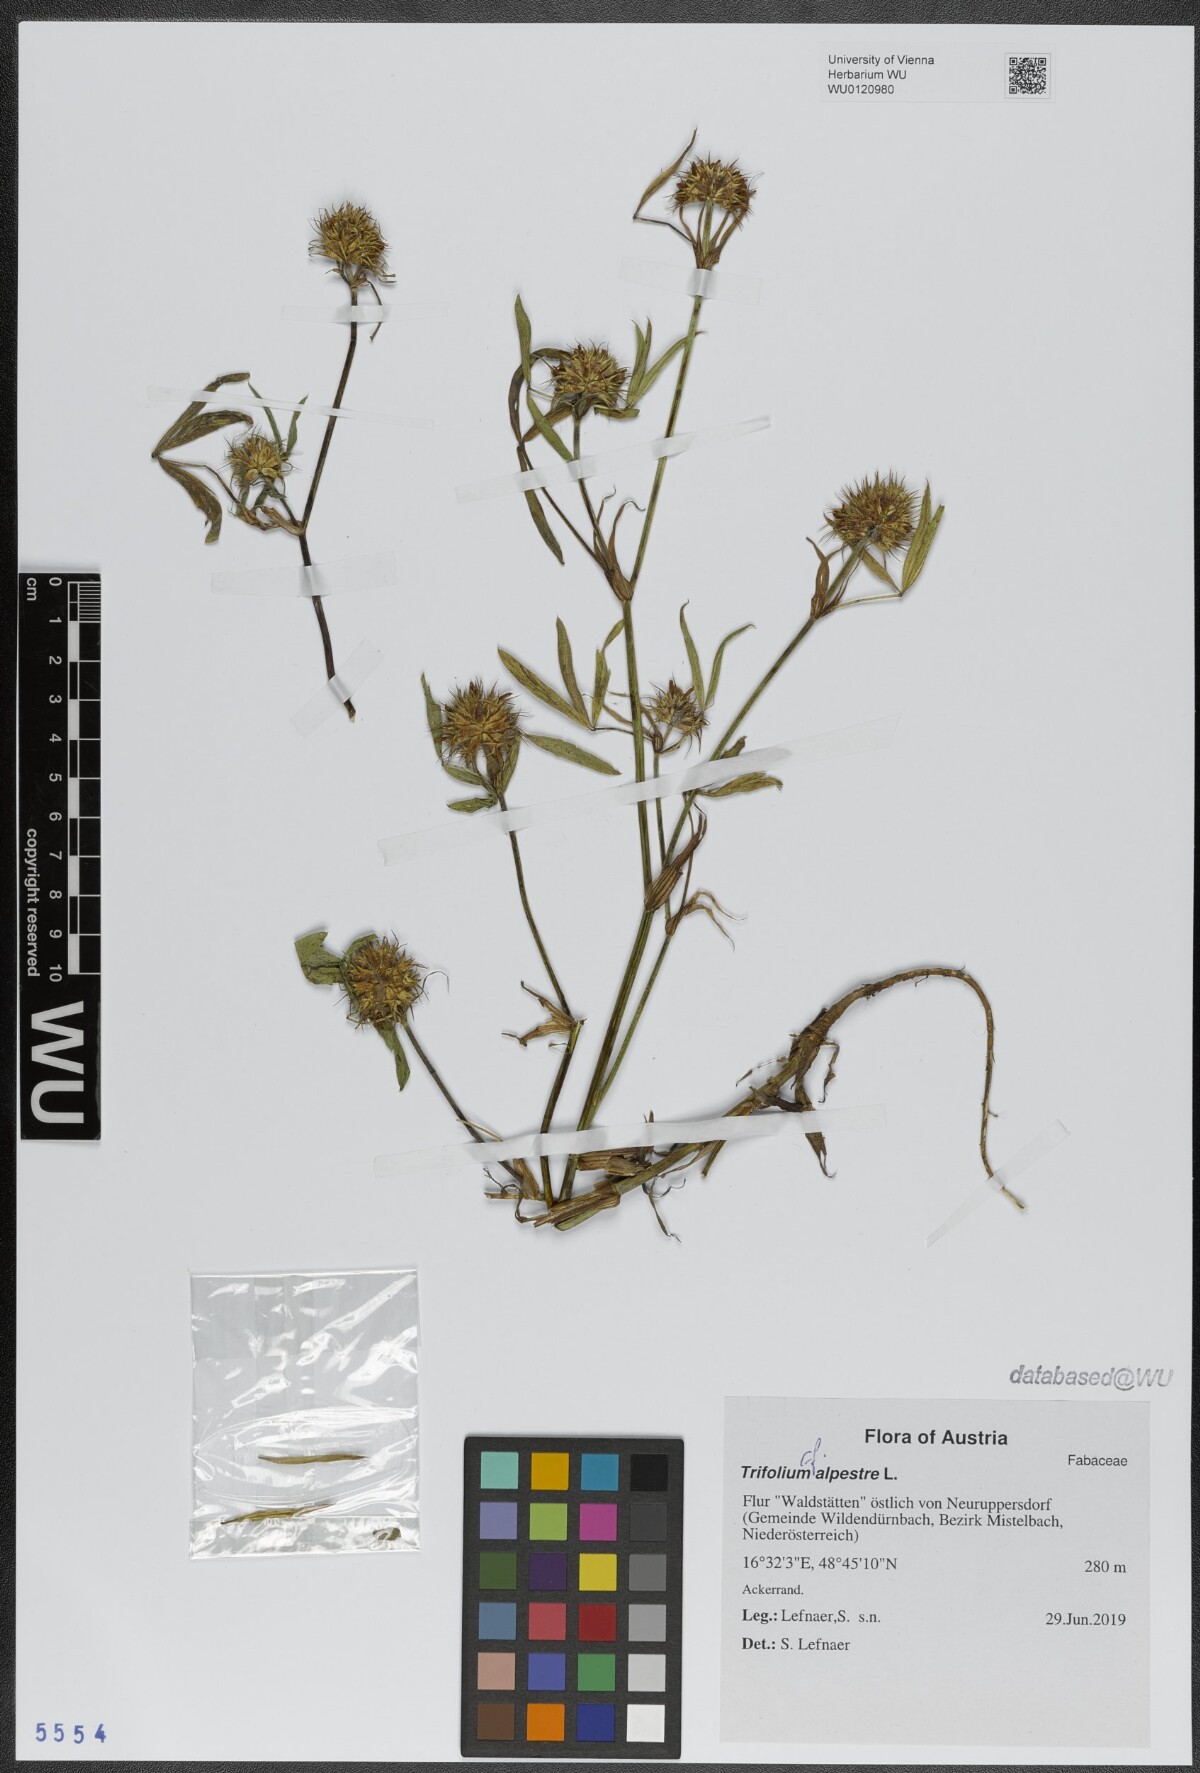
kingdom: Plantae
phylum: Tracheophyta
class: Magnoliopsida
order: Fabales
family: Fabaceae
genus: Trifolium
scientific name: Trifolium alpestre
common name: Owl-head clover
